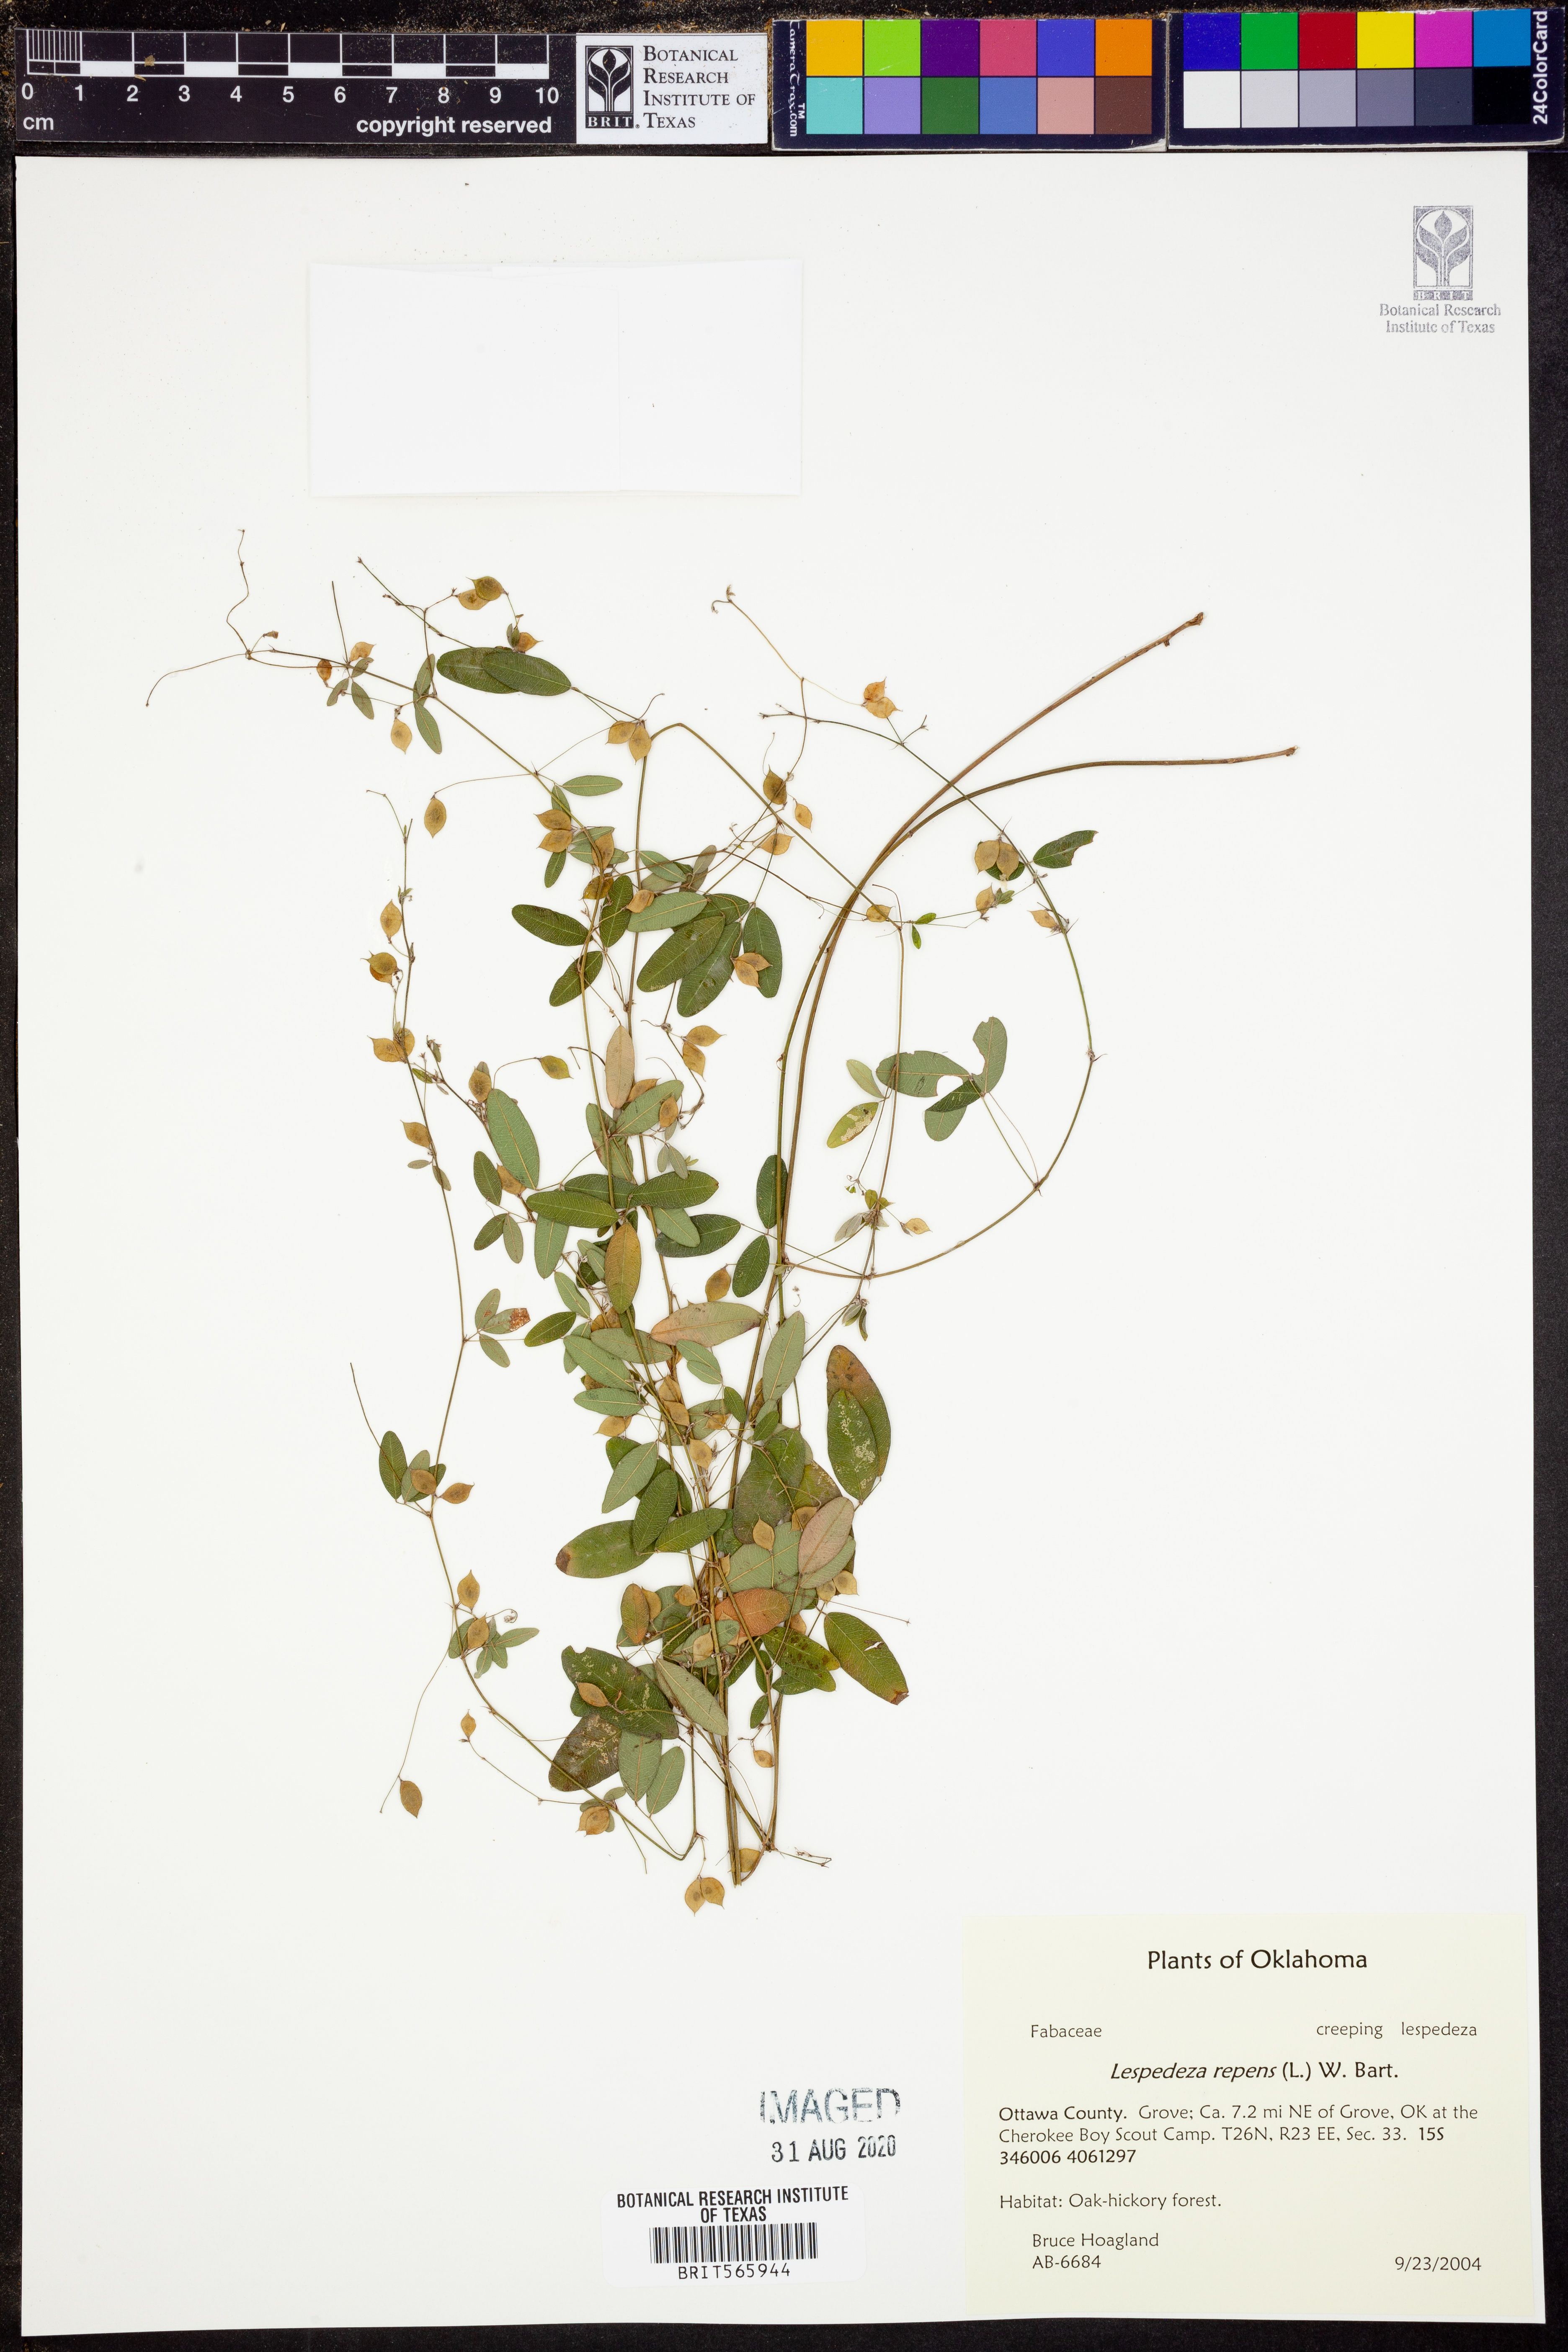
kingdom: Plantae
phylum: Tracheophyta
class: Magnoliopsida
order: Fabales
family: Fabaceae
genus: Lespedeza
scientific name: Lespedeza repens
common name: Creeping bush-clover
